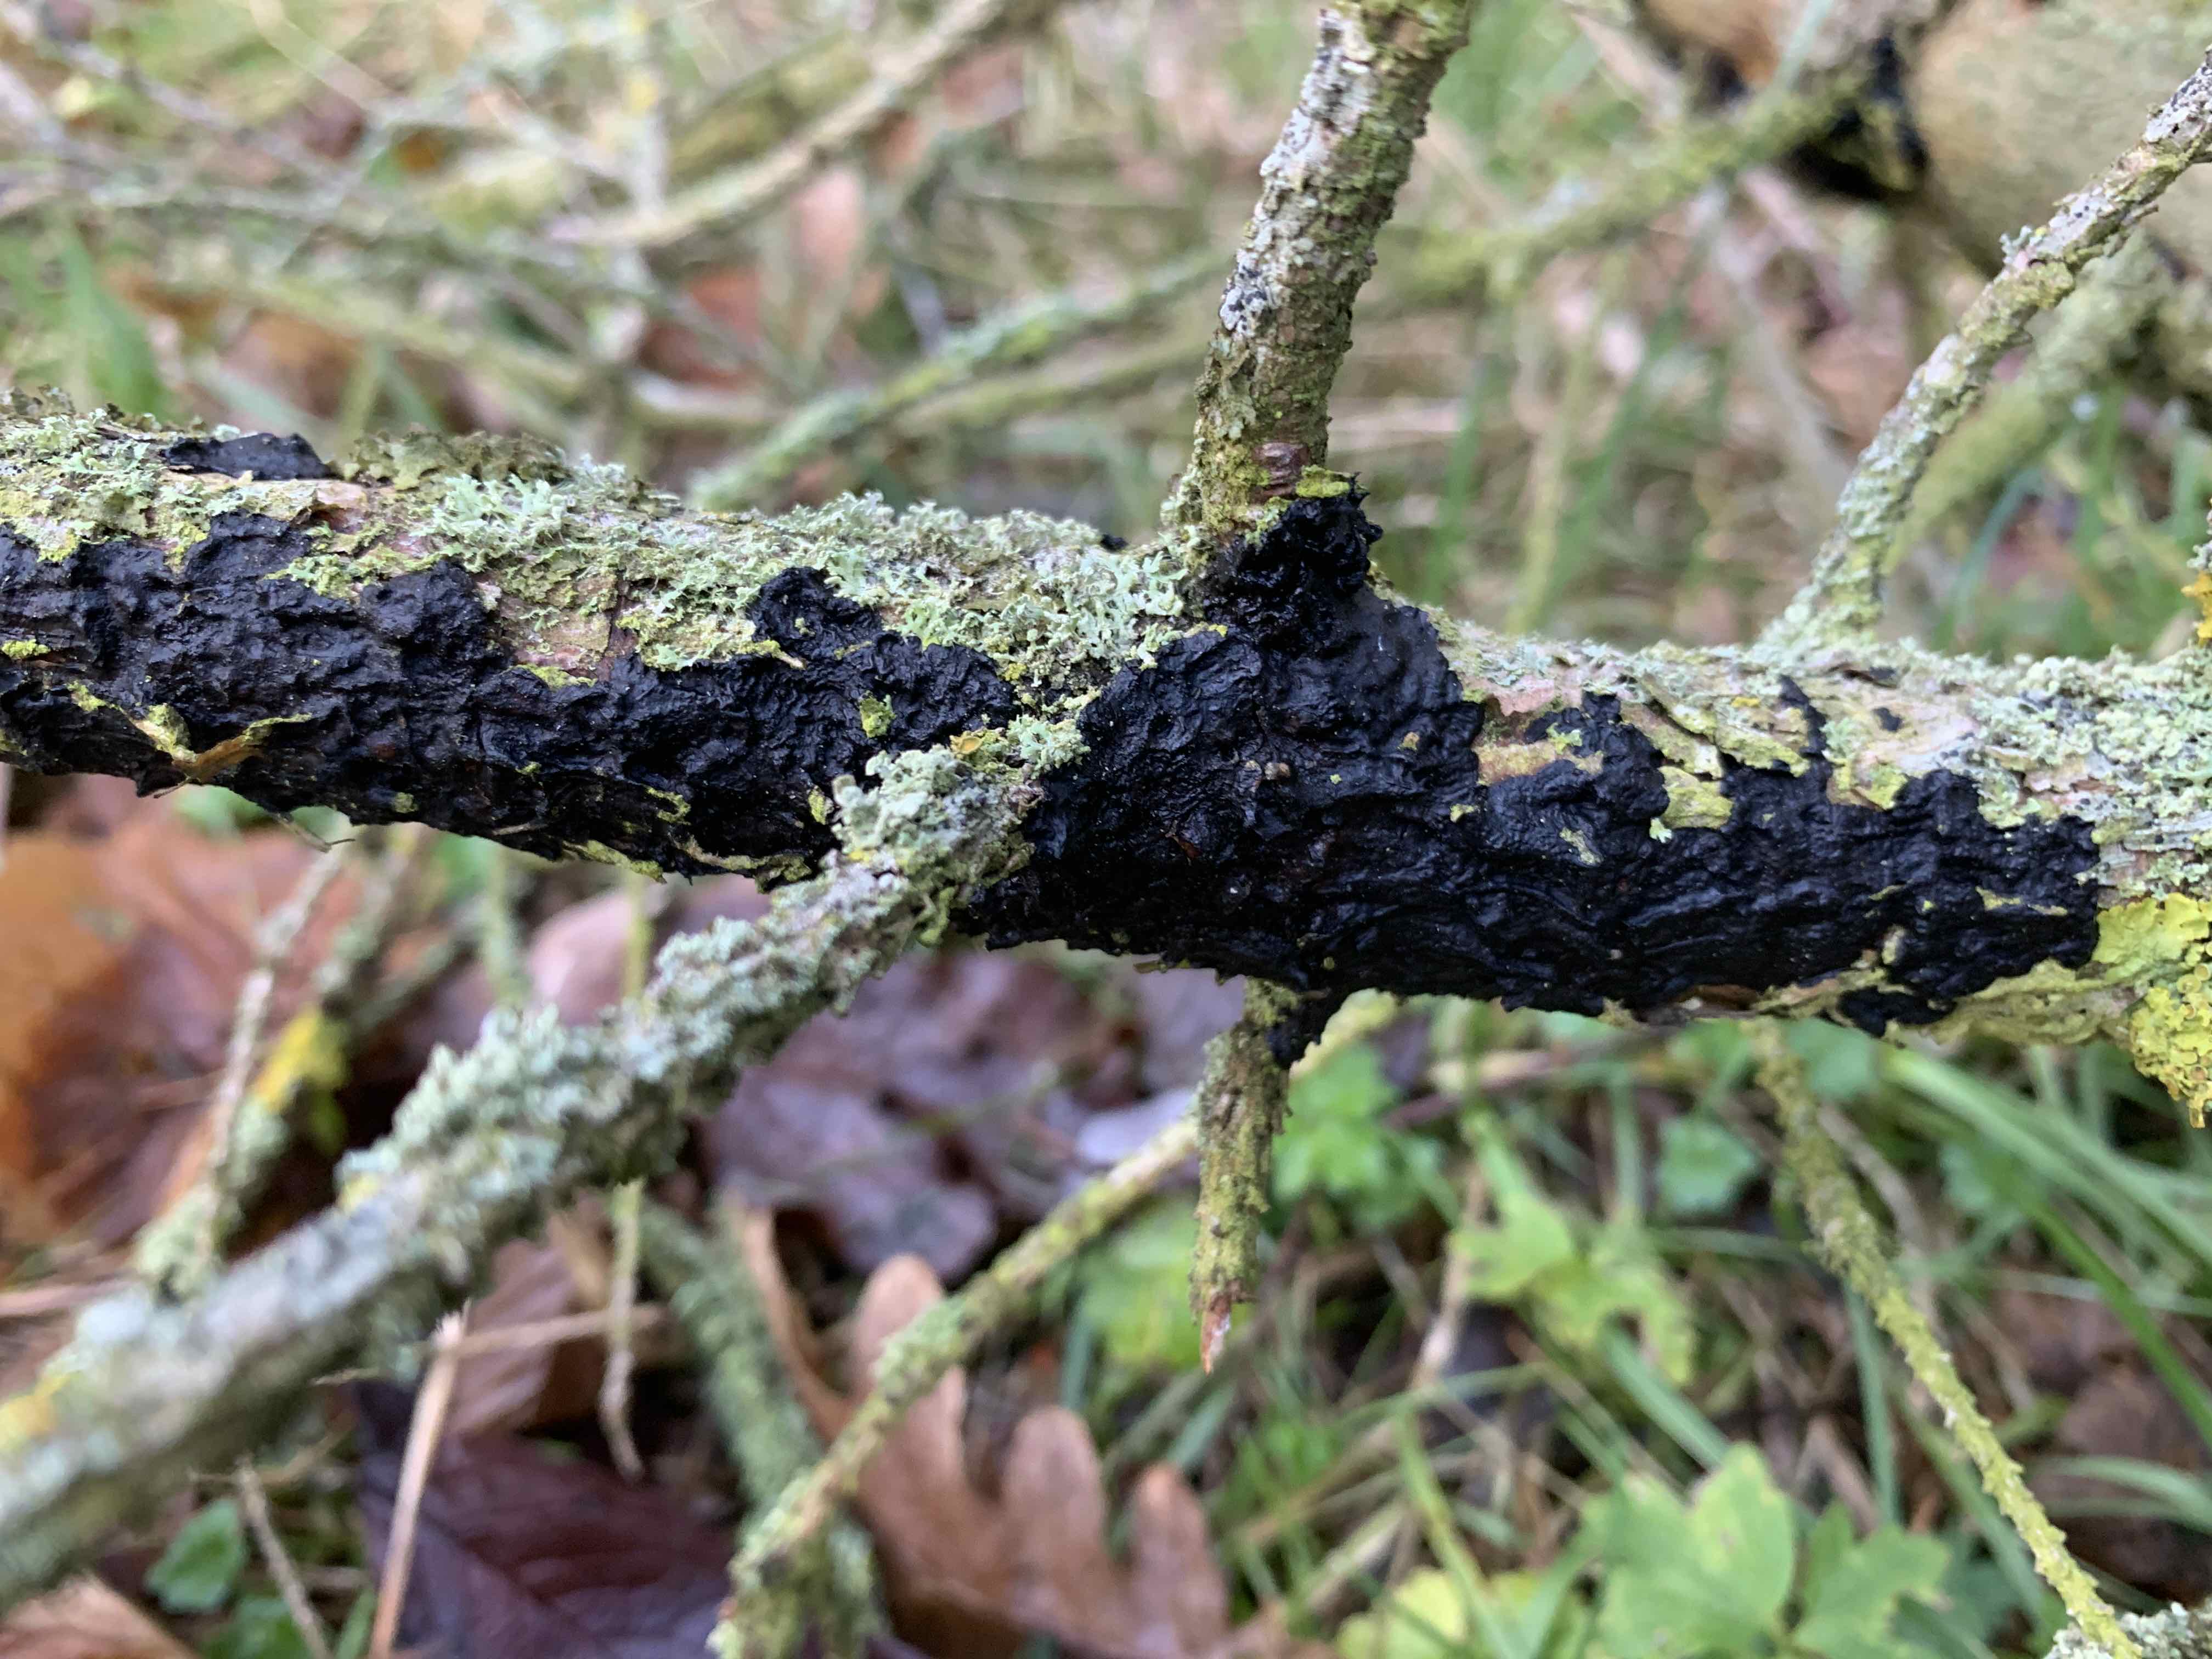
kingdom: Fungi
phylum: Basidiomycota
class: Agaricomycetes
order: Auriculariales
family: Auriculariaceae
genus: Exidia
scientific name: Exidia pithya
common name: gran-bævretop
